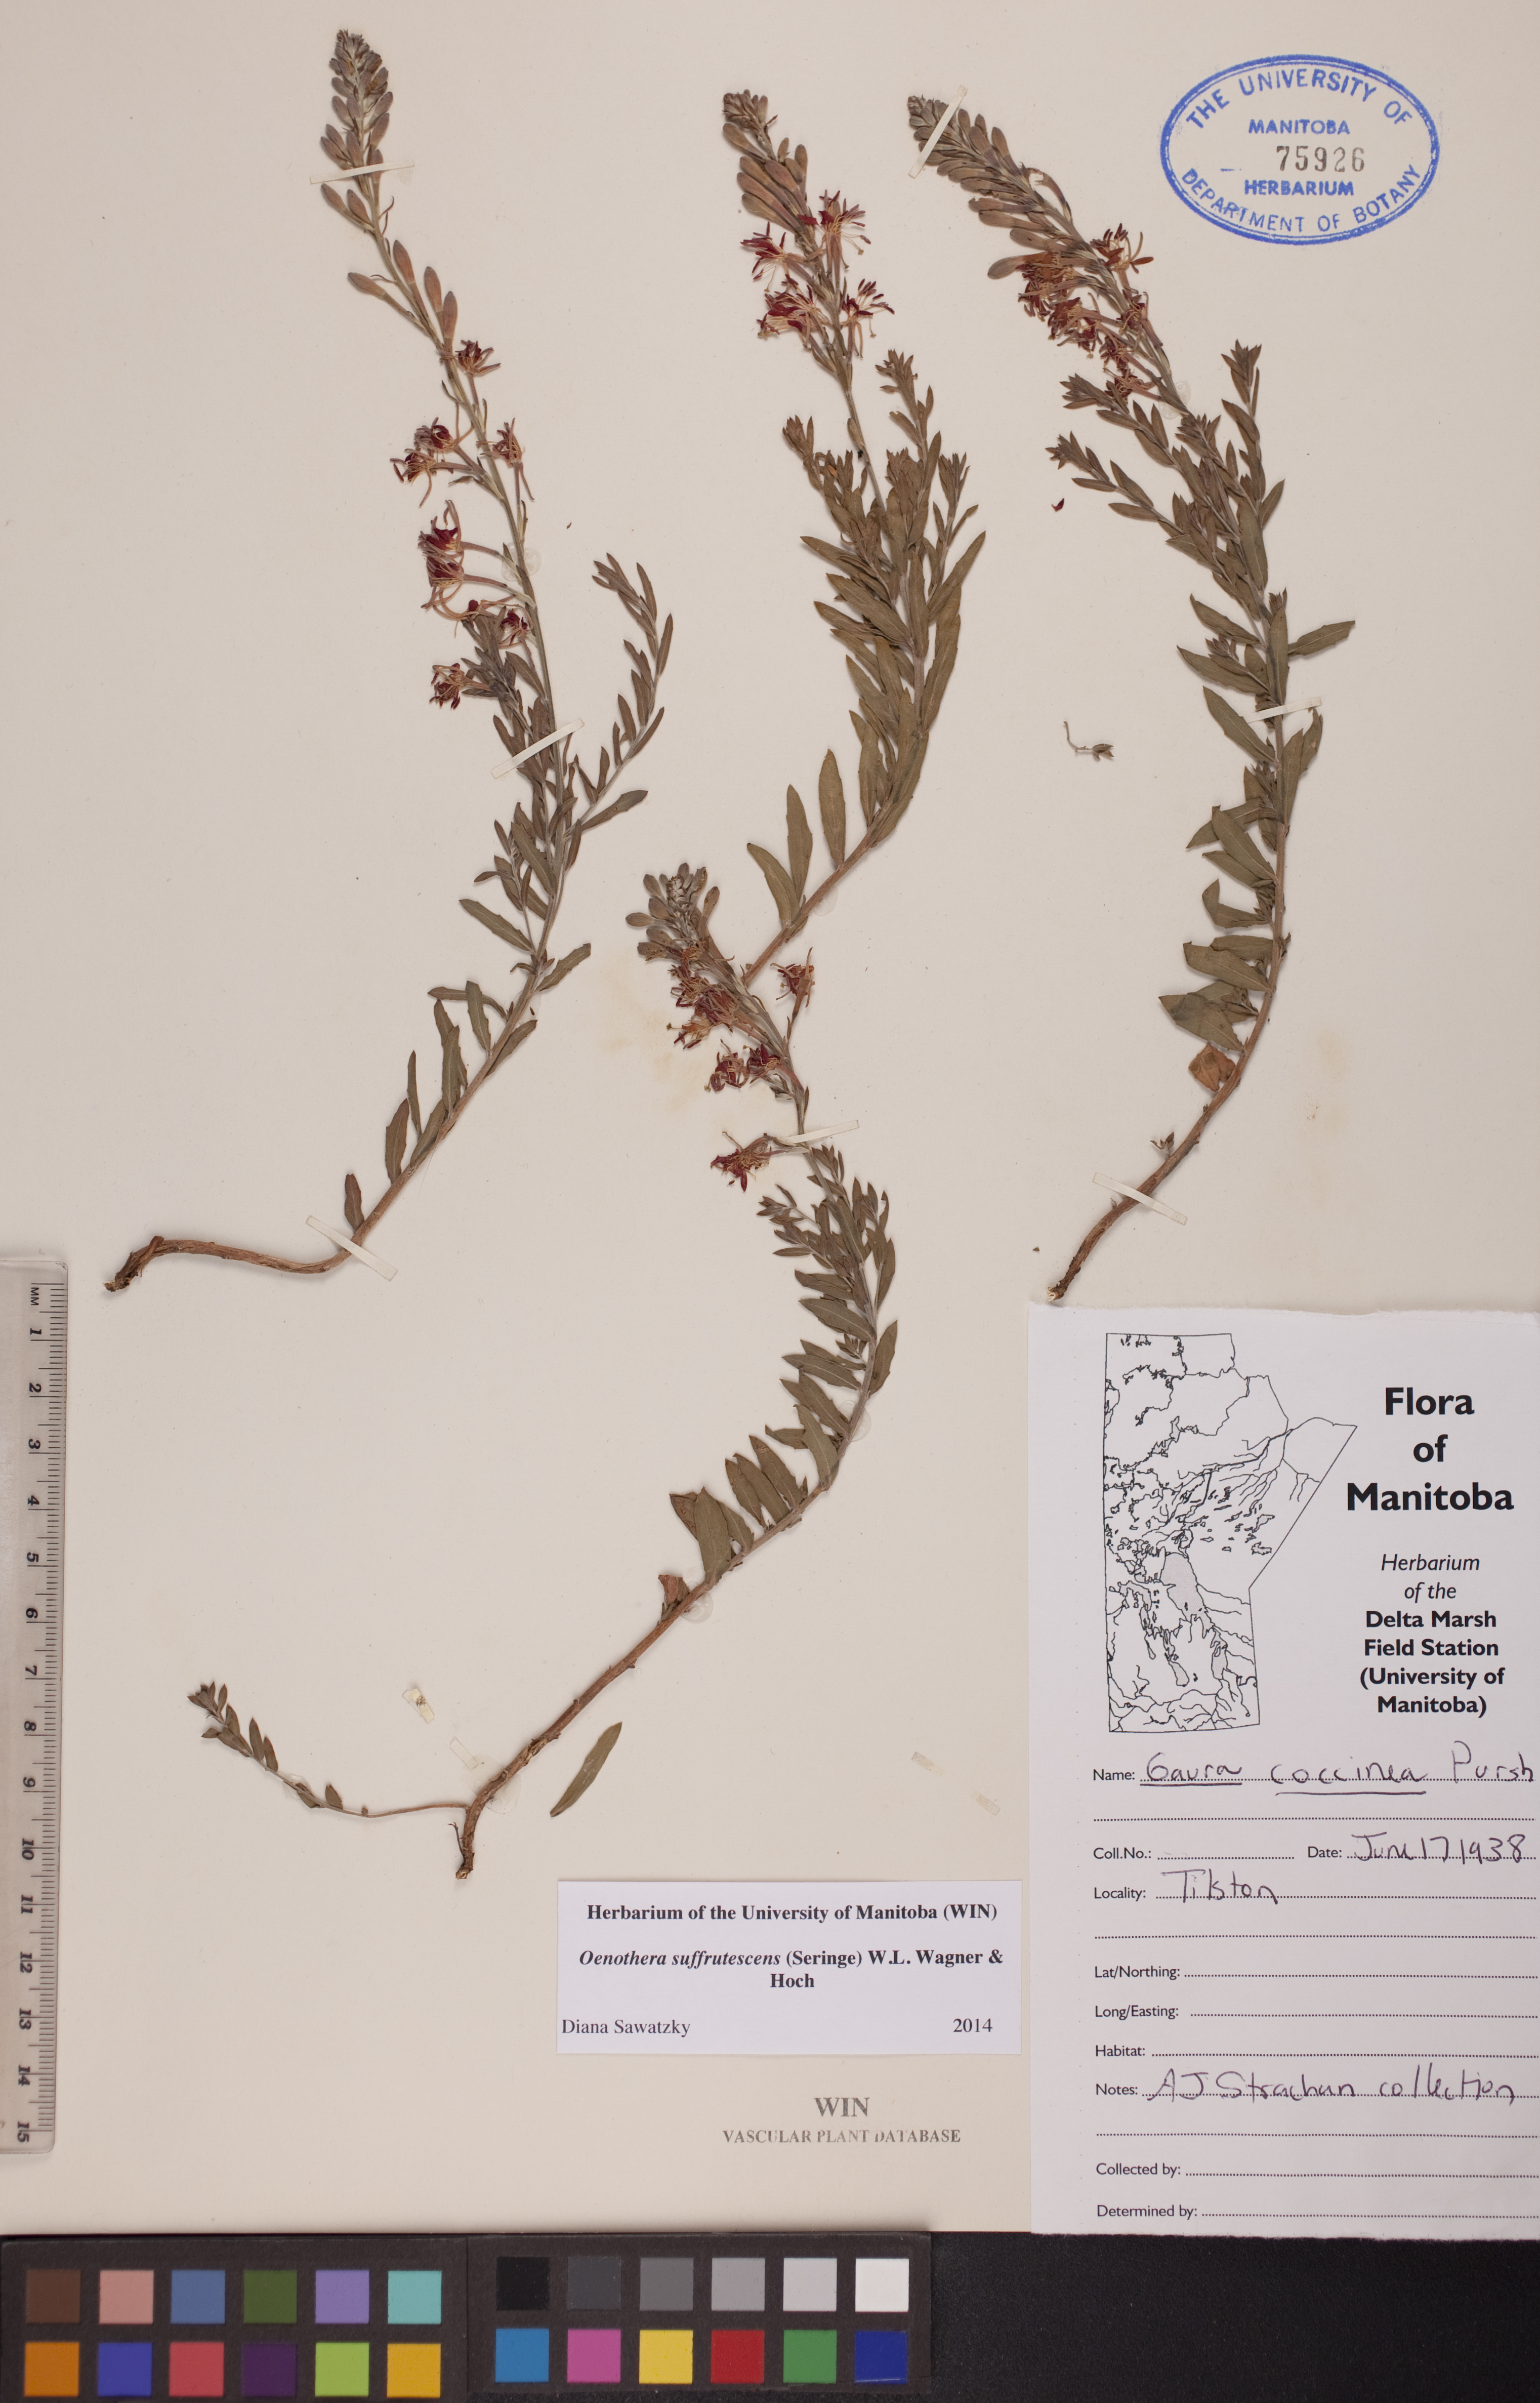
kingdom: Plantae
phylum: Tracheophyta
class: Magnoliopsida
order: Myrtales
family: Onagraceae
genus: Oenothera
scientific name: Oenothera suffrutescens
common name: Scarlet beeblossom
